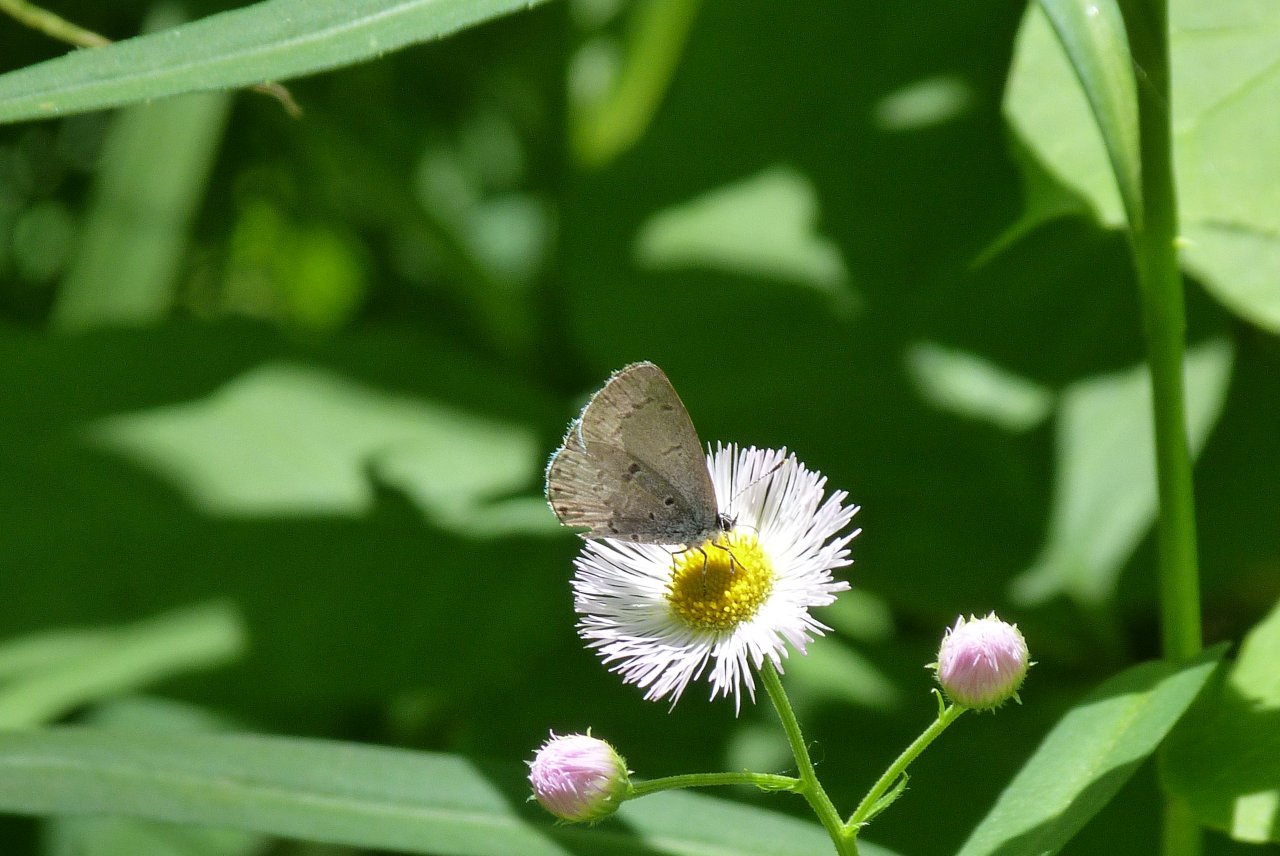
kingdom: Animalia
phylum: Arthropoda
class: Insecta
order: Lepidoptera
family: Lycaenidae
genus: Celastrina
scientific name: Celastrina
